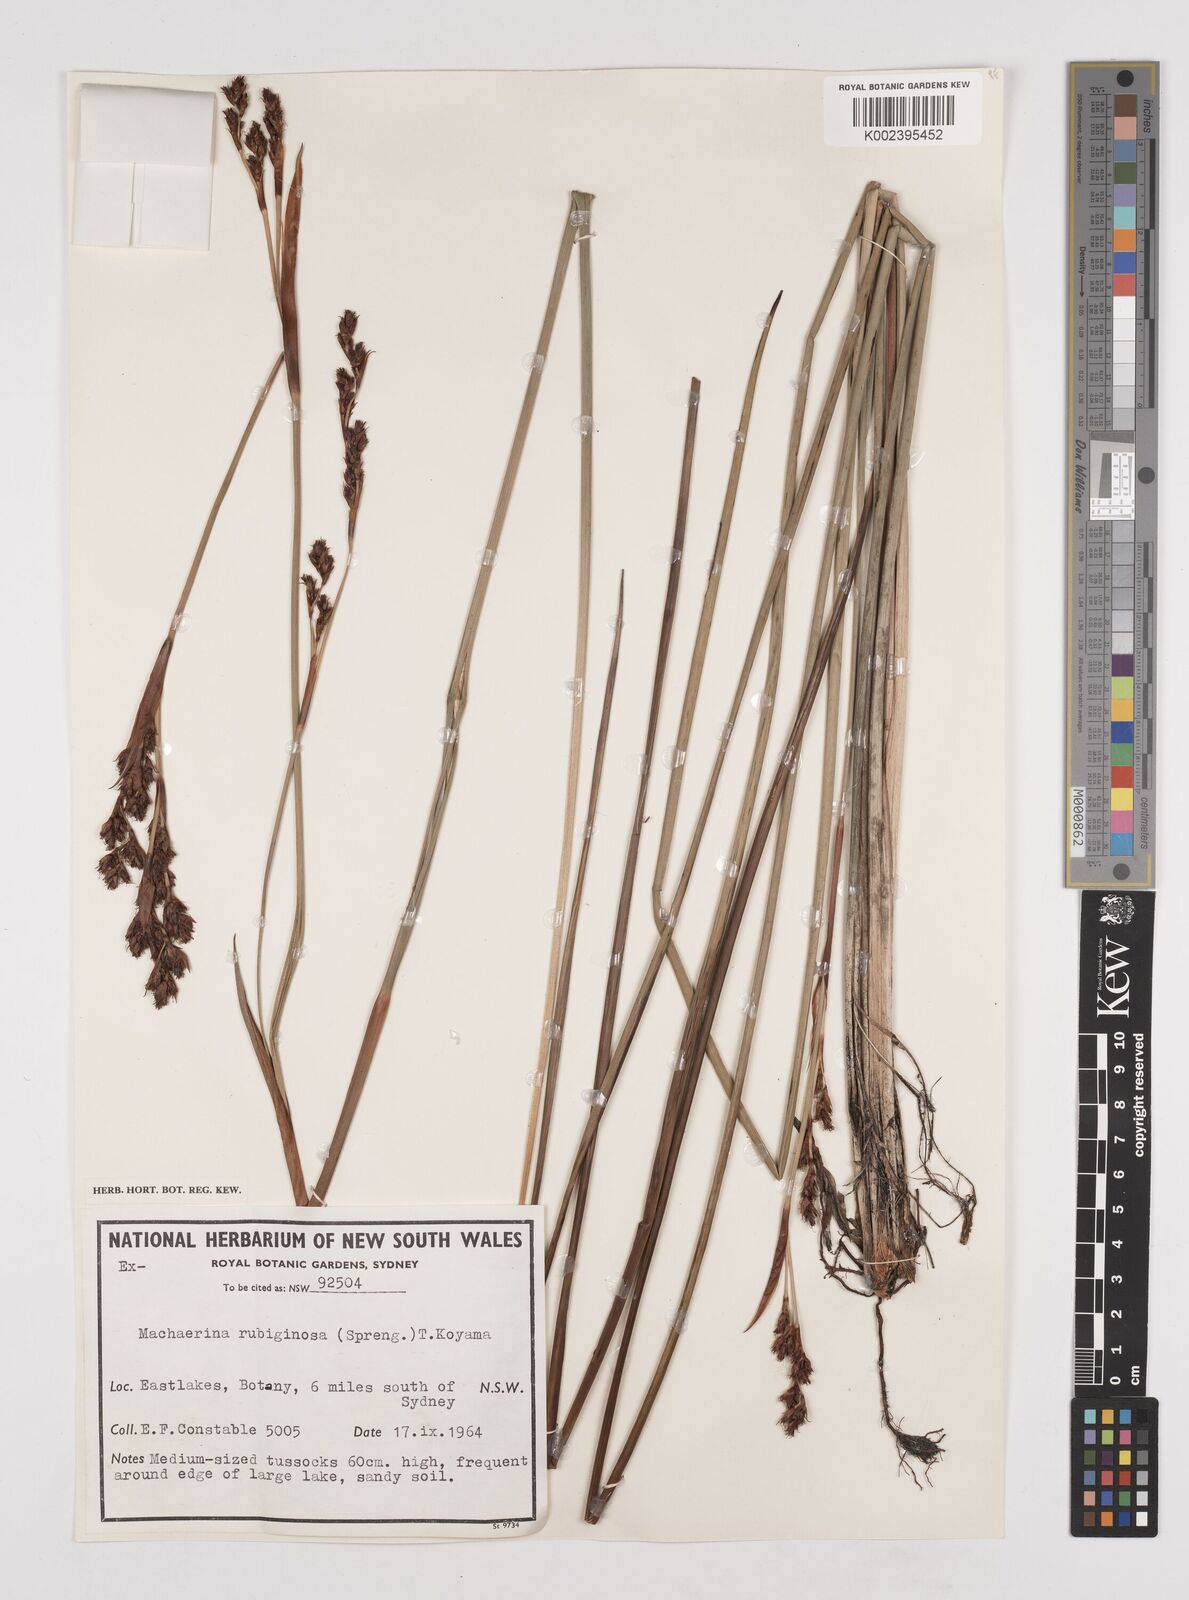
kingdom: Plantae
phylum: Tracheophyta
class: Liliopsida
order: Poales
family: Cyperaceae
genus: Machaerina
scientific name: Machaerina
